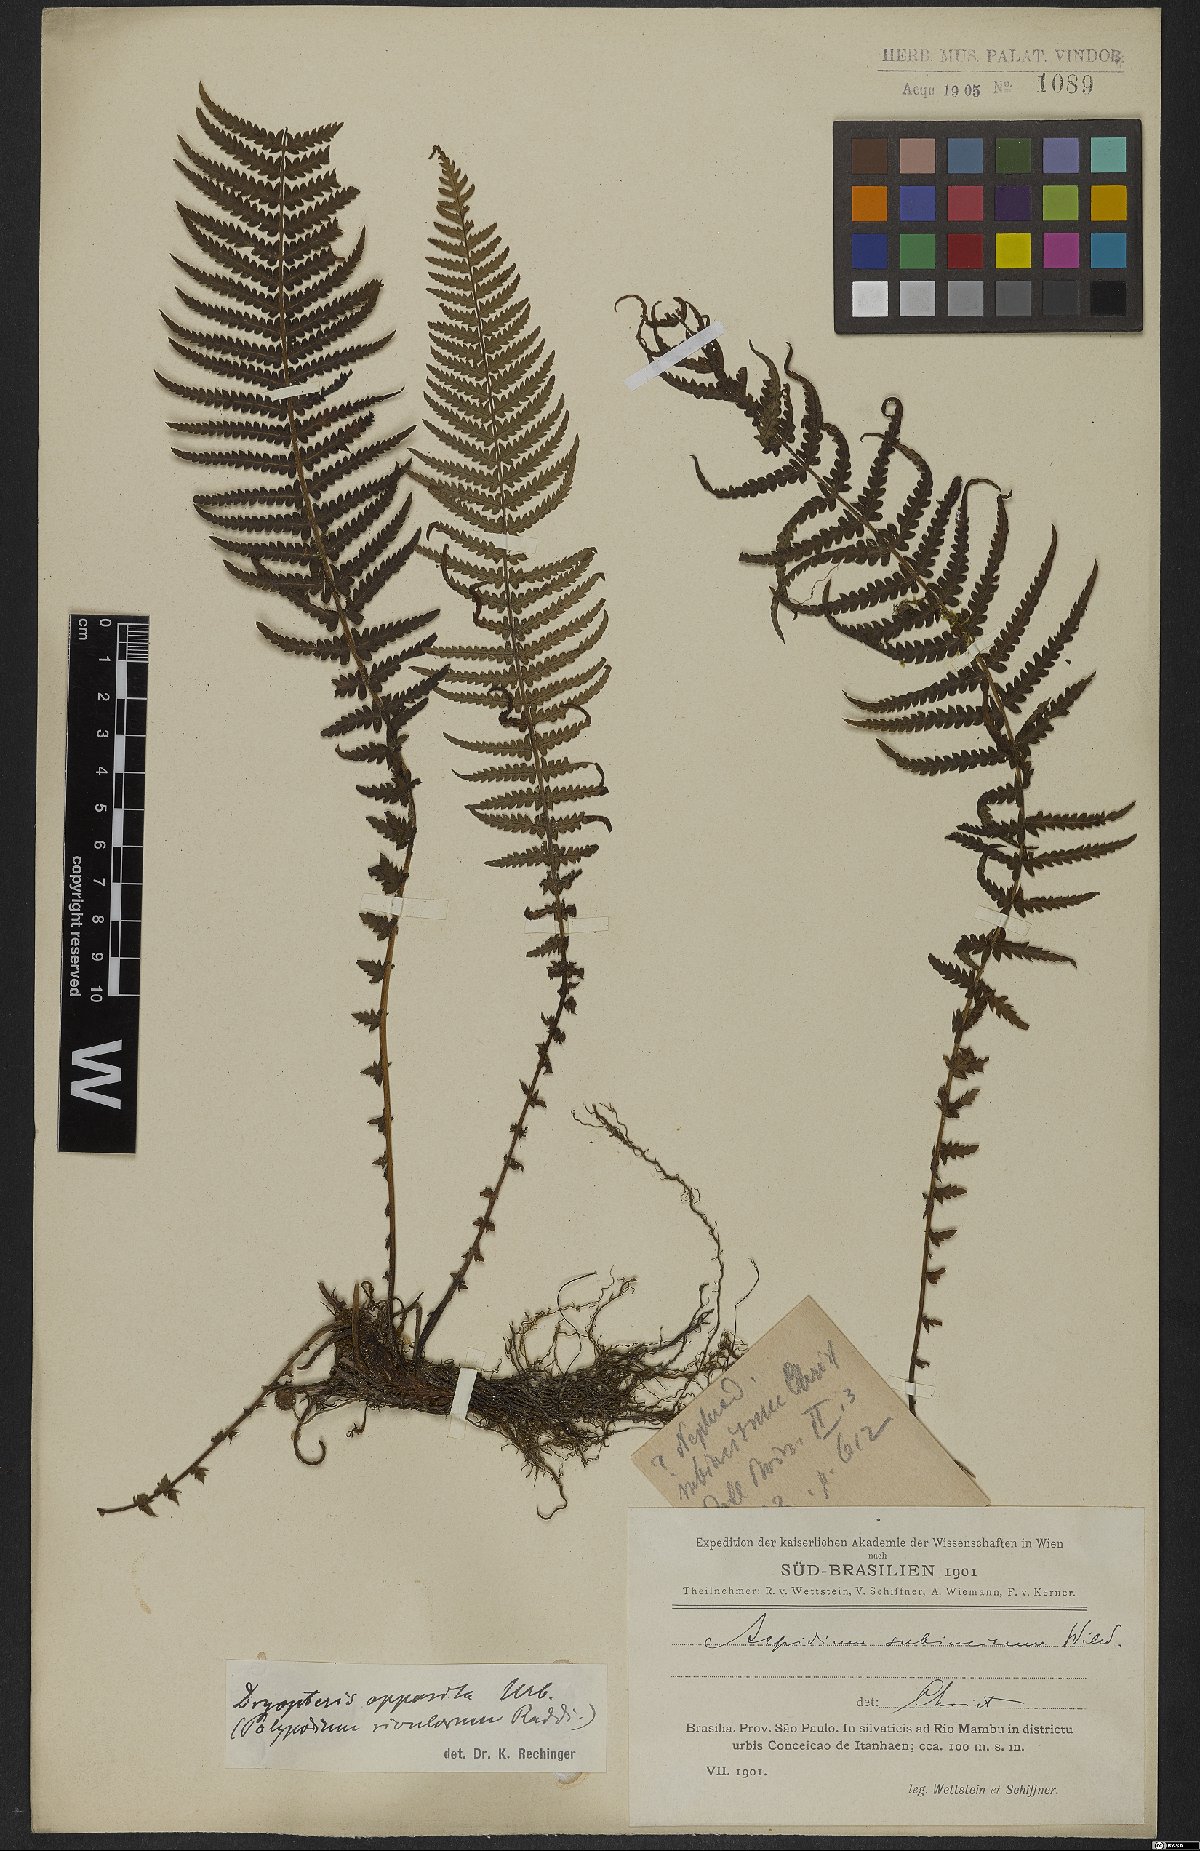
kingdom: Plantae
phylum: Tracheophyta
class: Polypodiopsida
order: Polypodiales
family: Thelypteridaceae
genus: Amauropelta
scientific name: Amauropelta opposita
